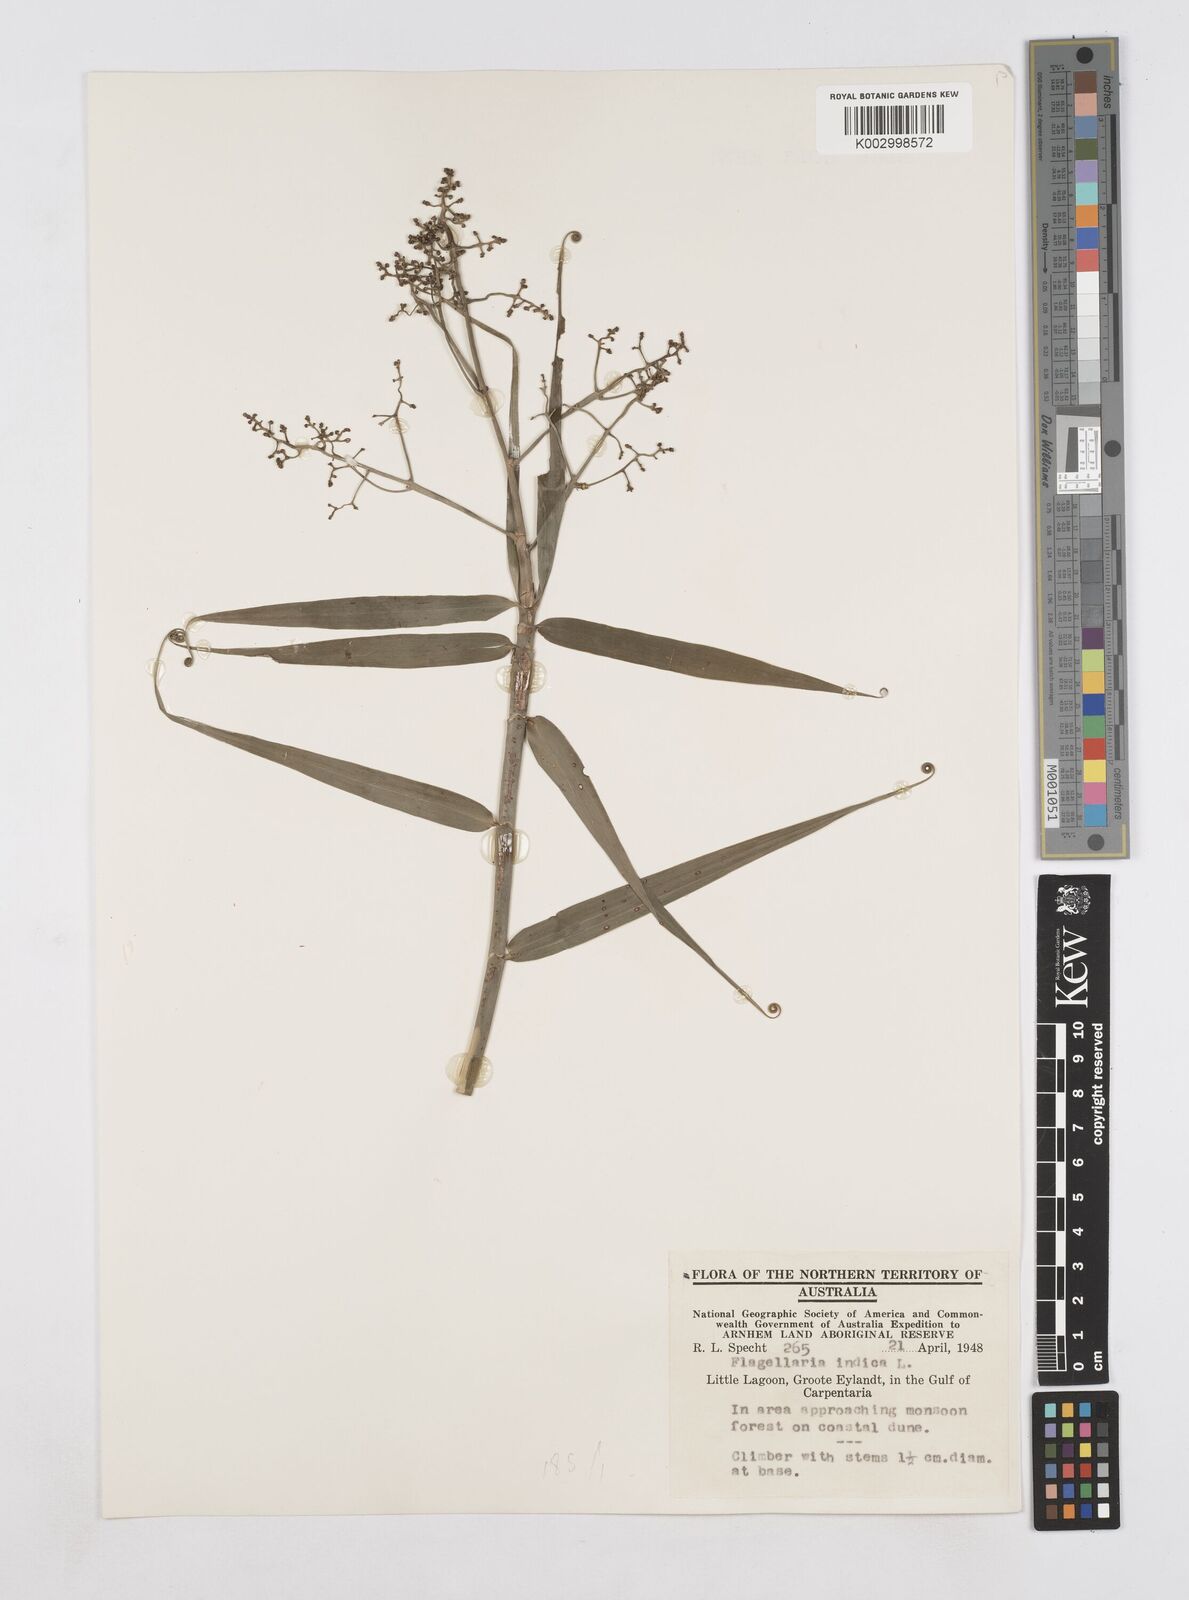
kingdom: Plantae
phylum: Tracheophyta
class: Liliopsida
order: Poales
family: Flagellariaceae
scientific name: Flagellariaceae
